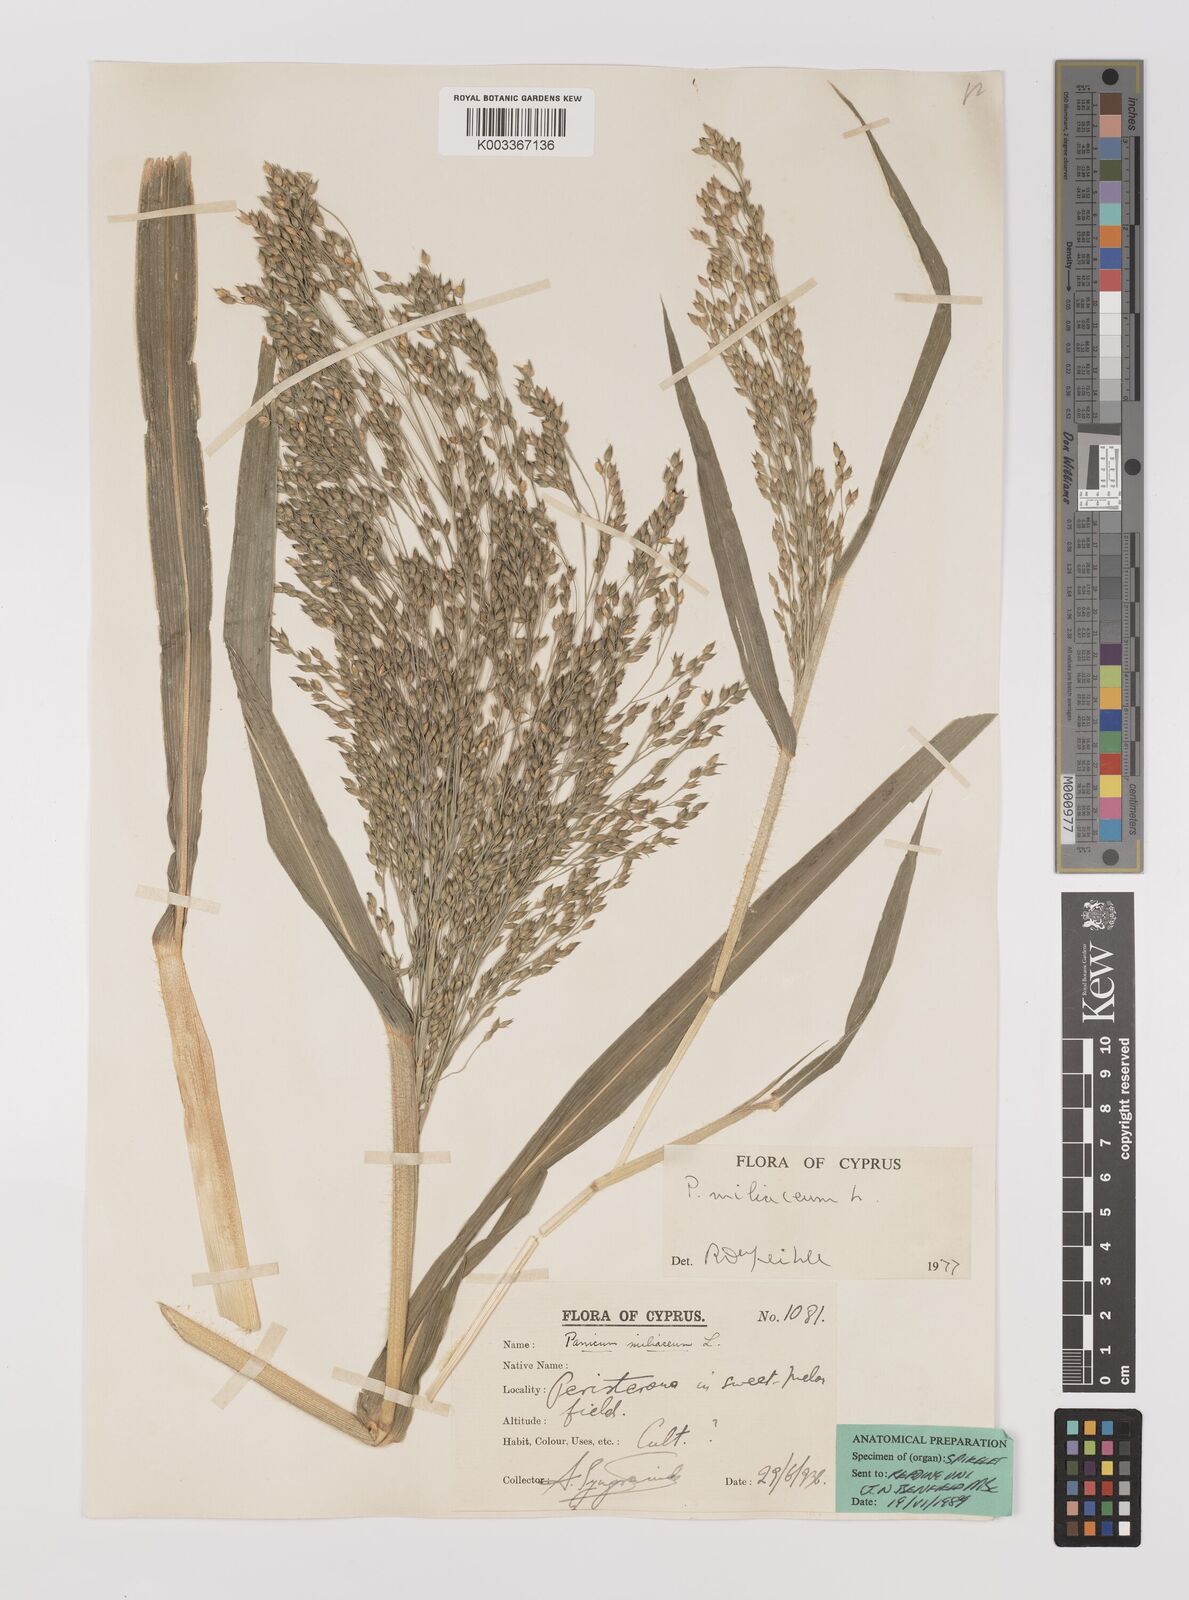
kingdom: Plantae
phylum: Tracheophyta
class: Liliopsida
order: Poales
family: Poaceae
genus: Panicum
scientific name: Panicum miliaceum
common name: Common millet
